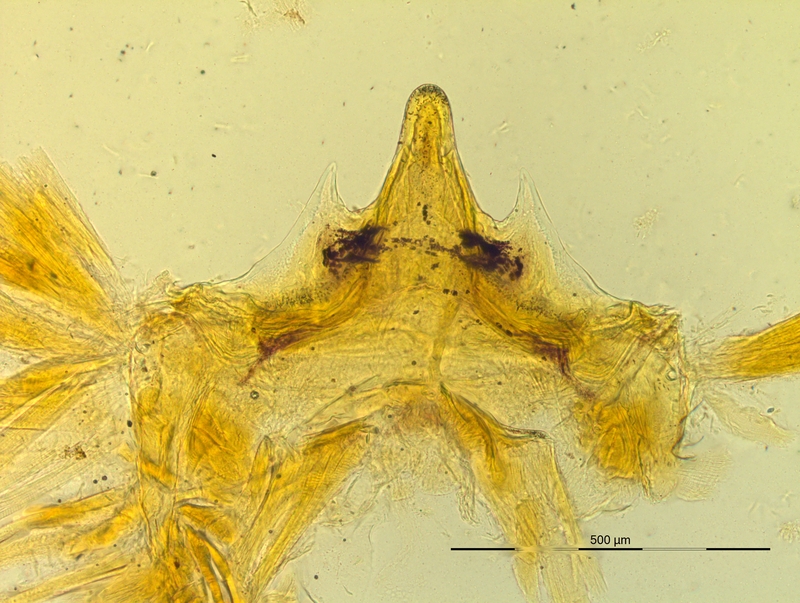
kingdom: Animalia
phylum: Arthropoda
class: Diplopoda
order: Chordeumatida
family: Craspedosomatidae
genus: Pyrgocyphosoma
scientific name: Pyrgocyphosoma serravallense
